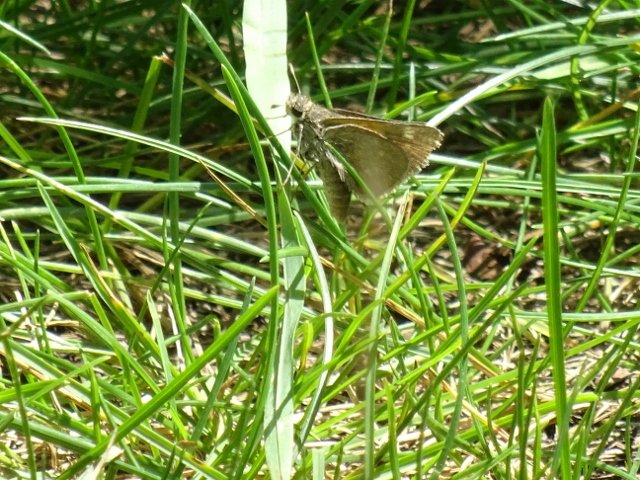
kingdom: Animalia
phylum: Arthropoda
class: Insecta
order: Lepidoptera
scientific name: Lepidoptera
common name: Butterflies
